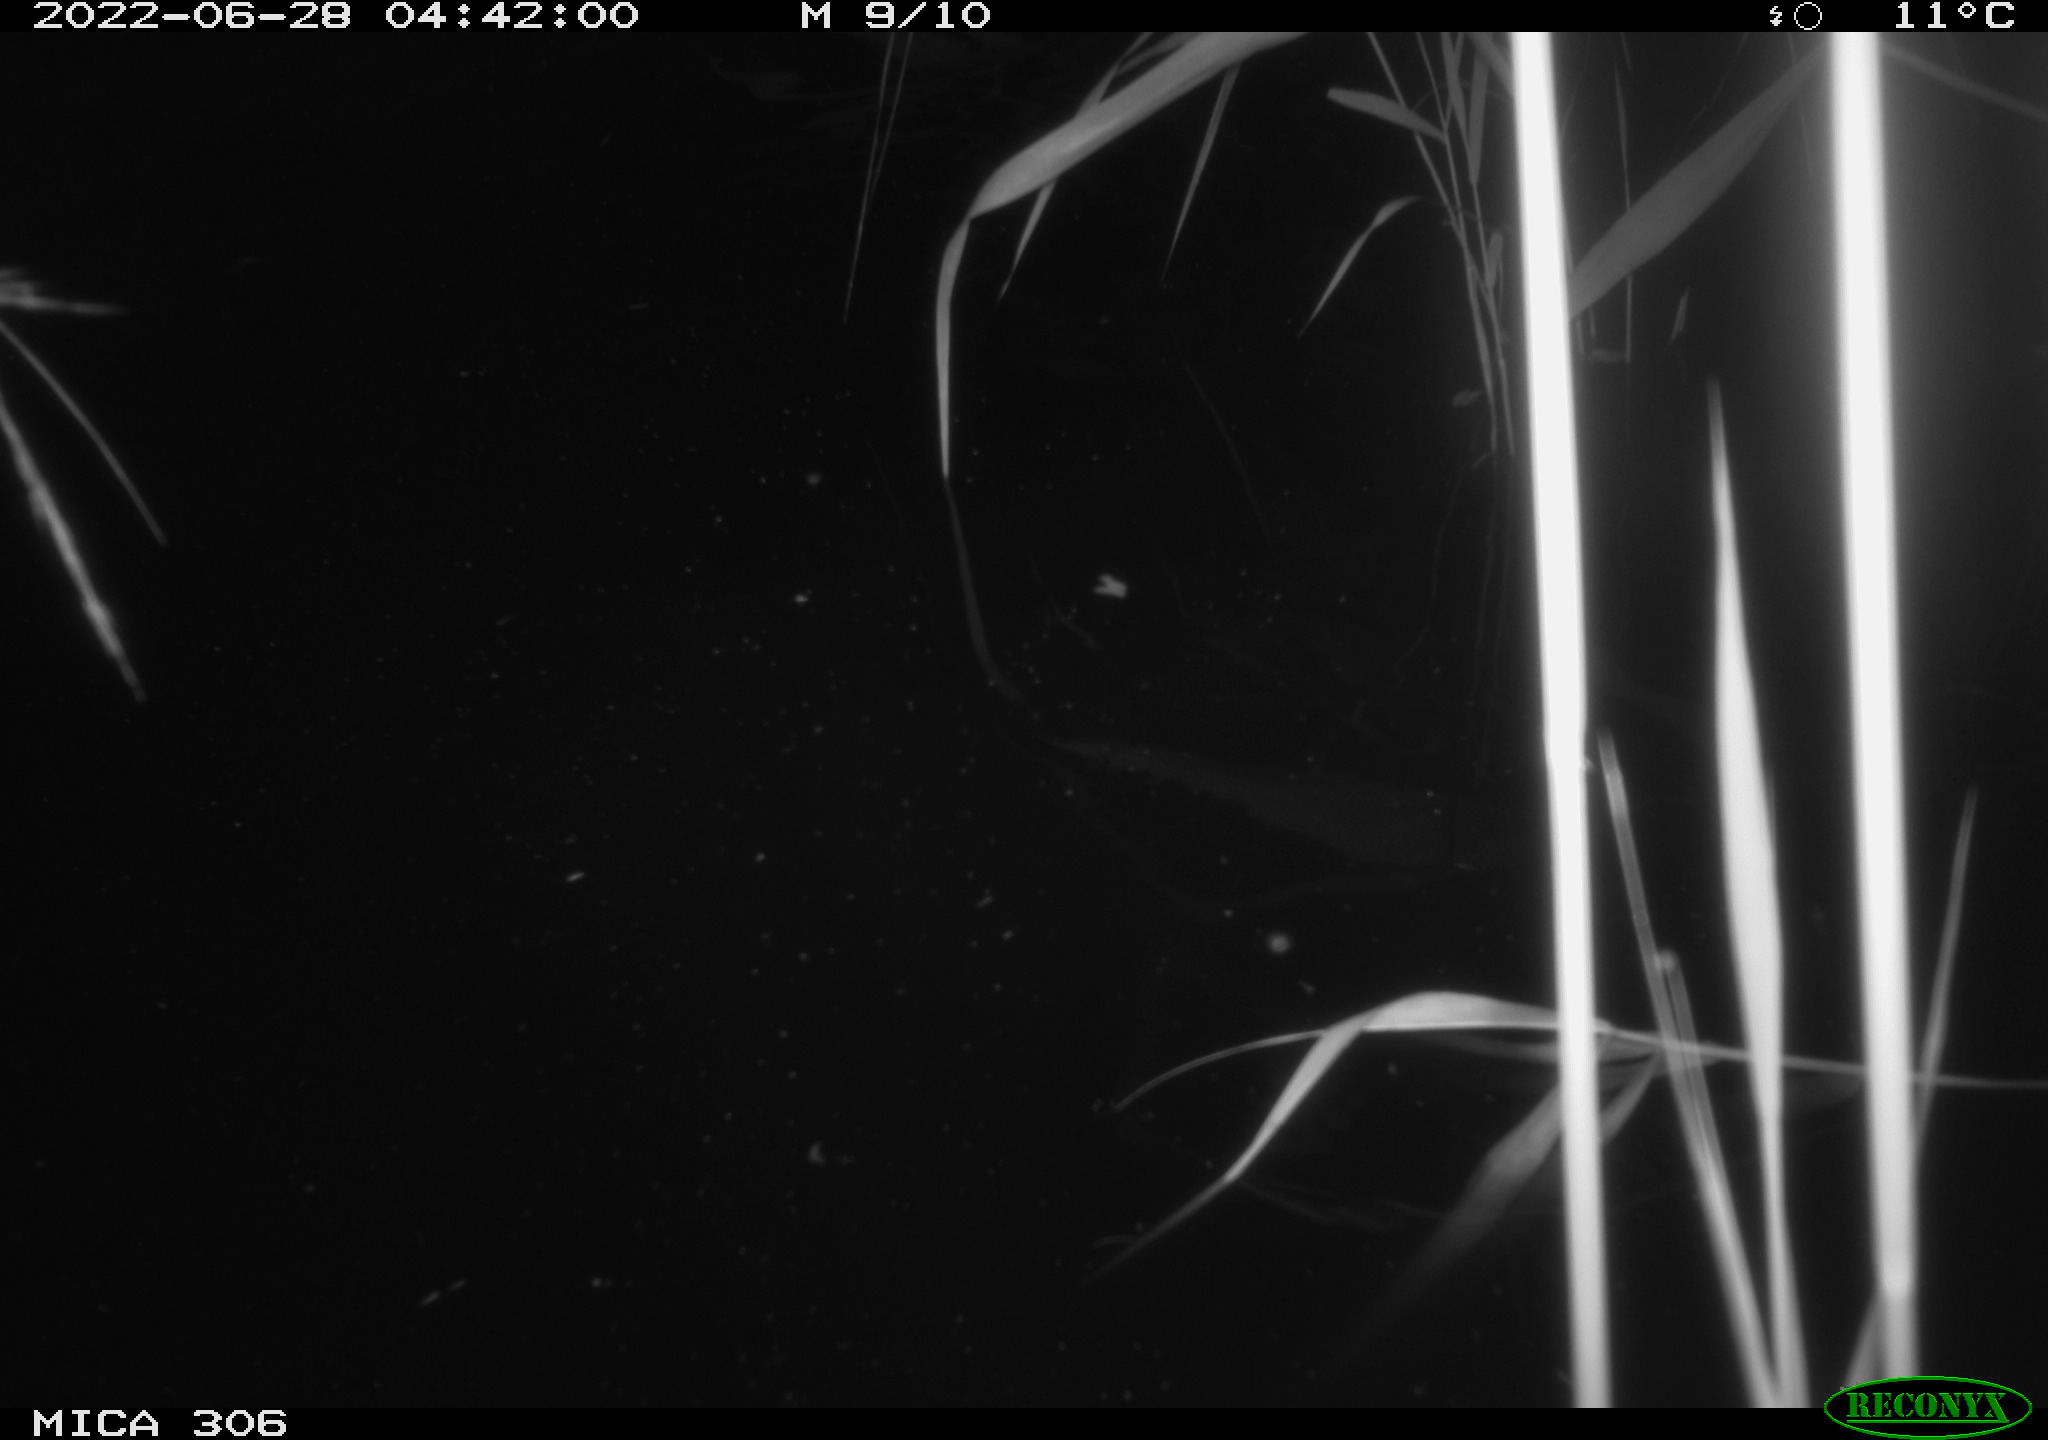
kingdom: Animalia
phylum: Chordata
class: Mammalia
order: Rodentia
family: Cricetidae
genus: Ondatra
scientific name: Ondatra zibethicus
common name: Muskrat
